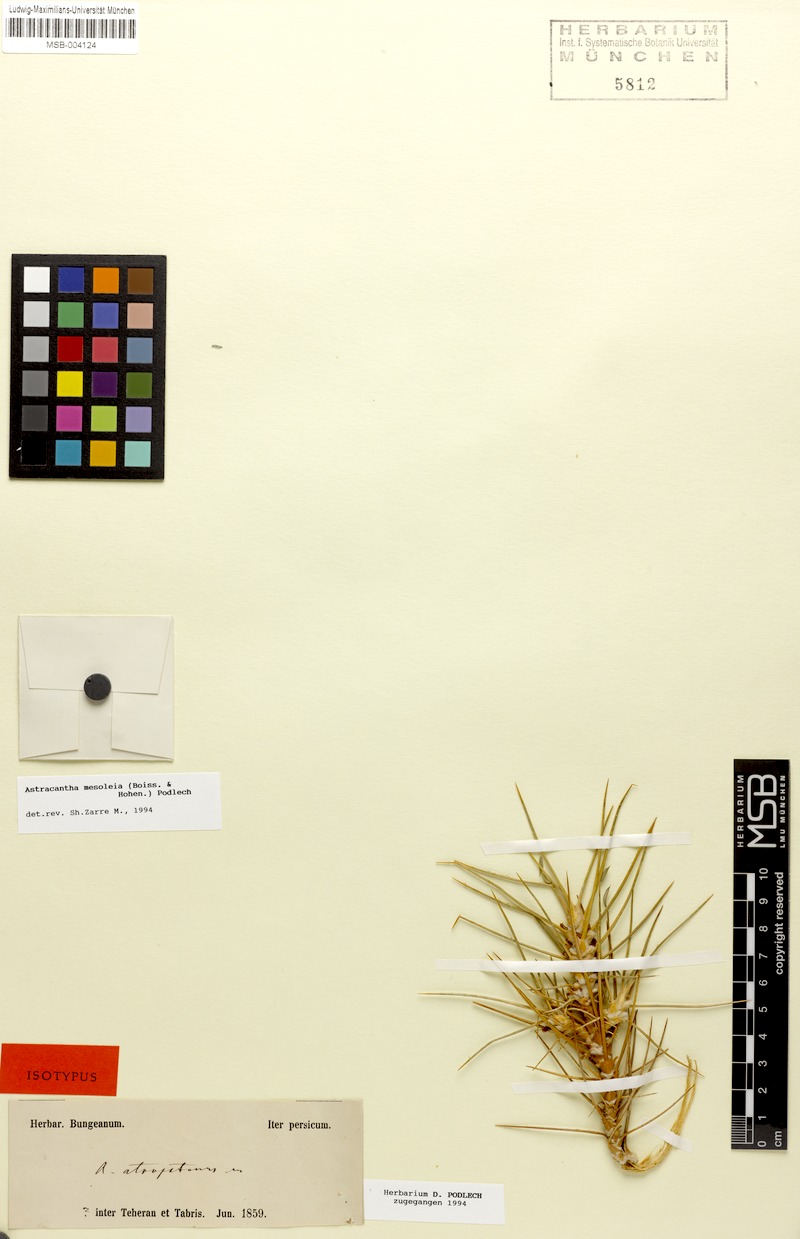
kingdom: Plantae
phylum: Tracheophyta
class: Magnoliopsida
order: Fabales
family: Fabaceae
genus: Astragalus
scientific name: Astragalus verus
